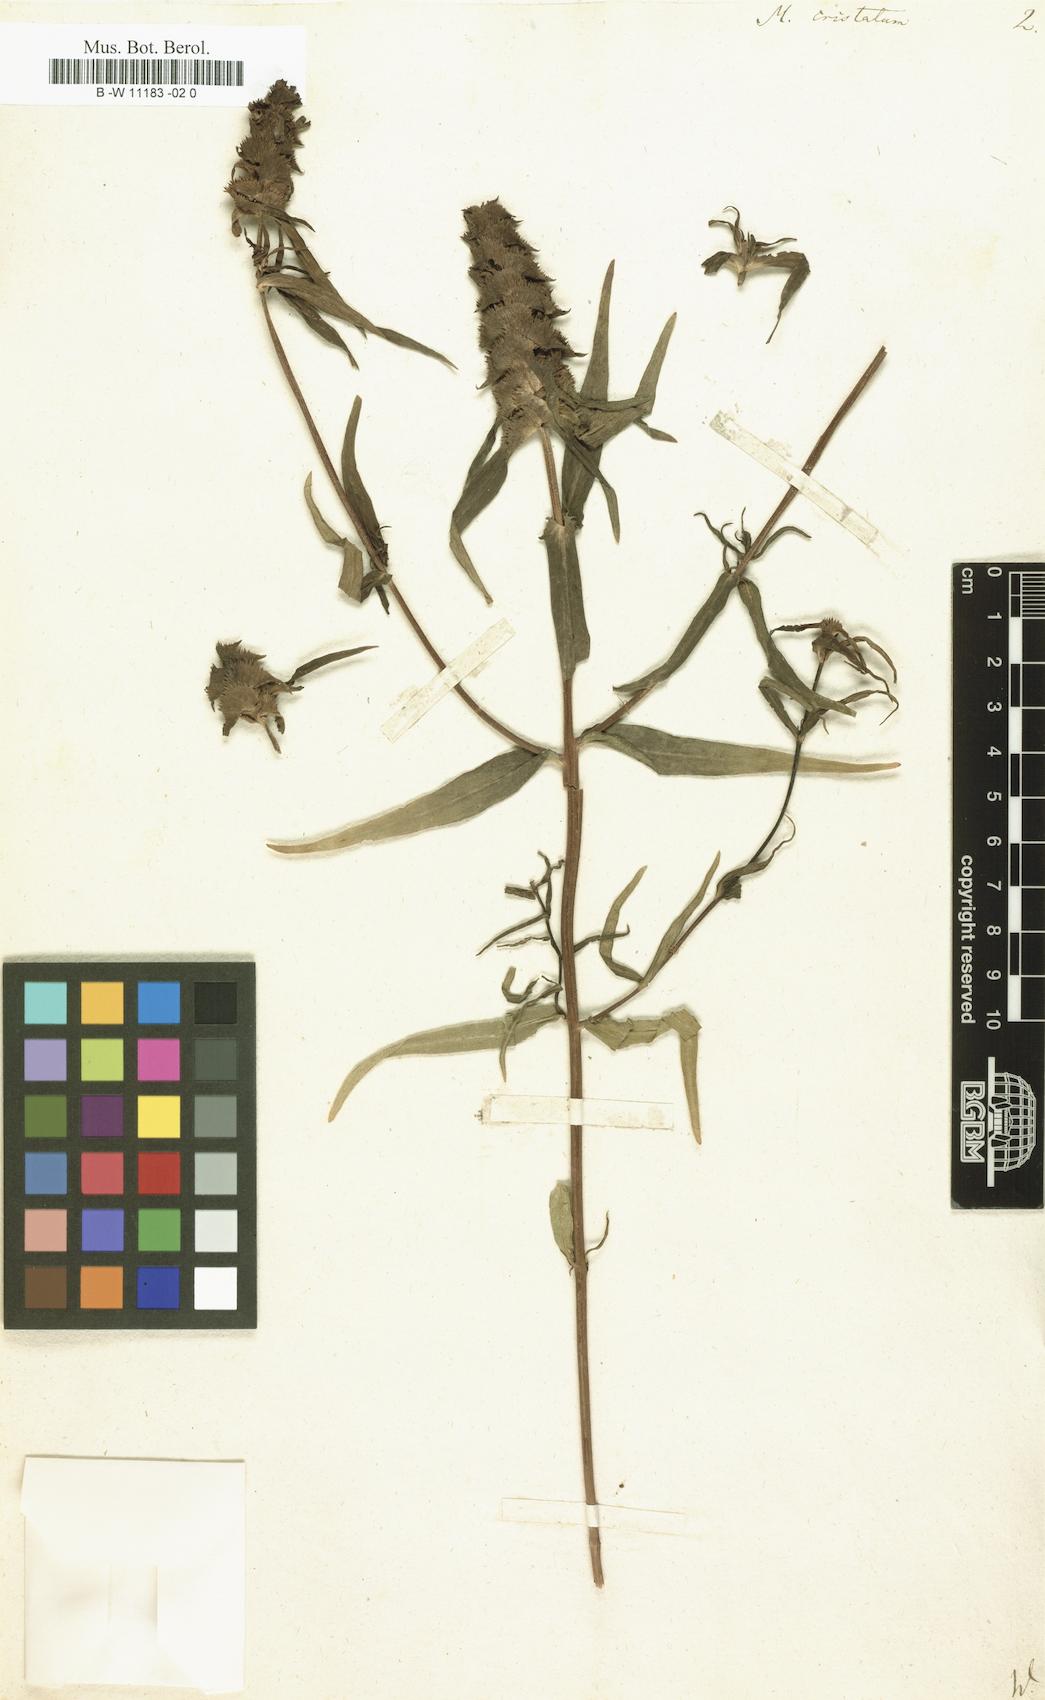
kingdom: Plantae
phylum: Tracheophyta
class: Magnoliopsida
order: Lamiales
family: Orobanchaceae
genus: Melampyrum
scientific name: Melampyrum cristatum
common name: Crested cow-wheat
